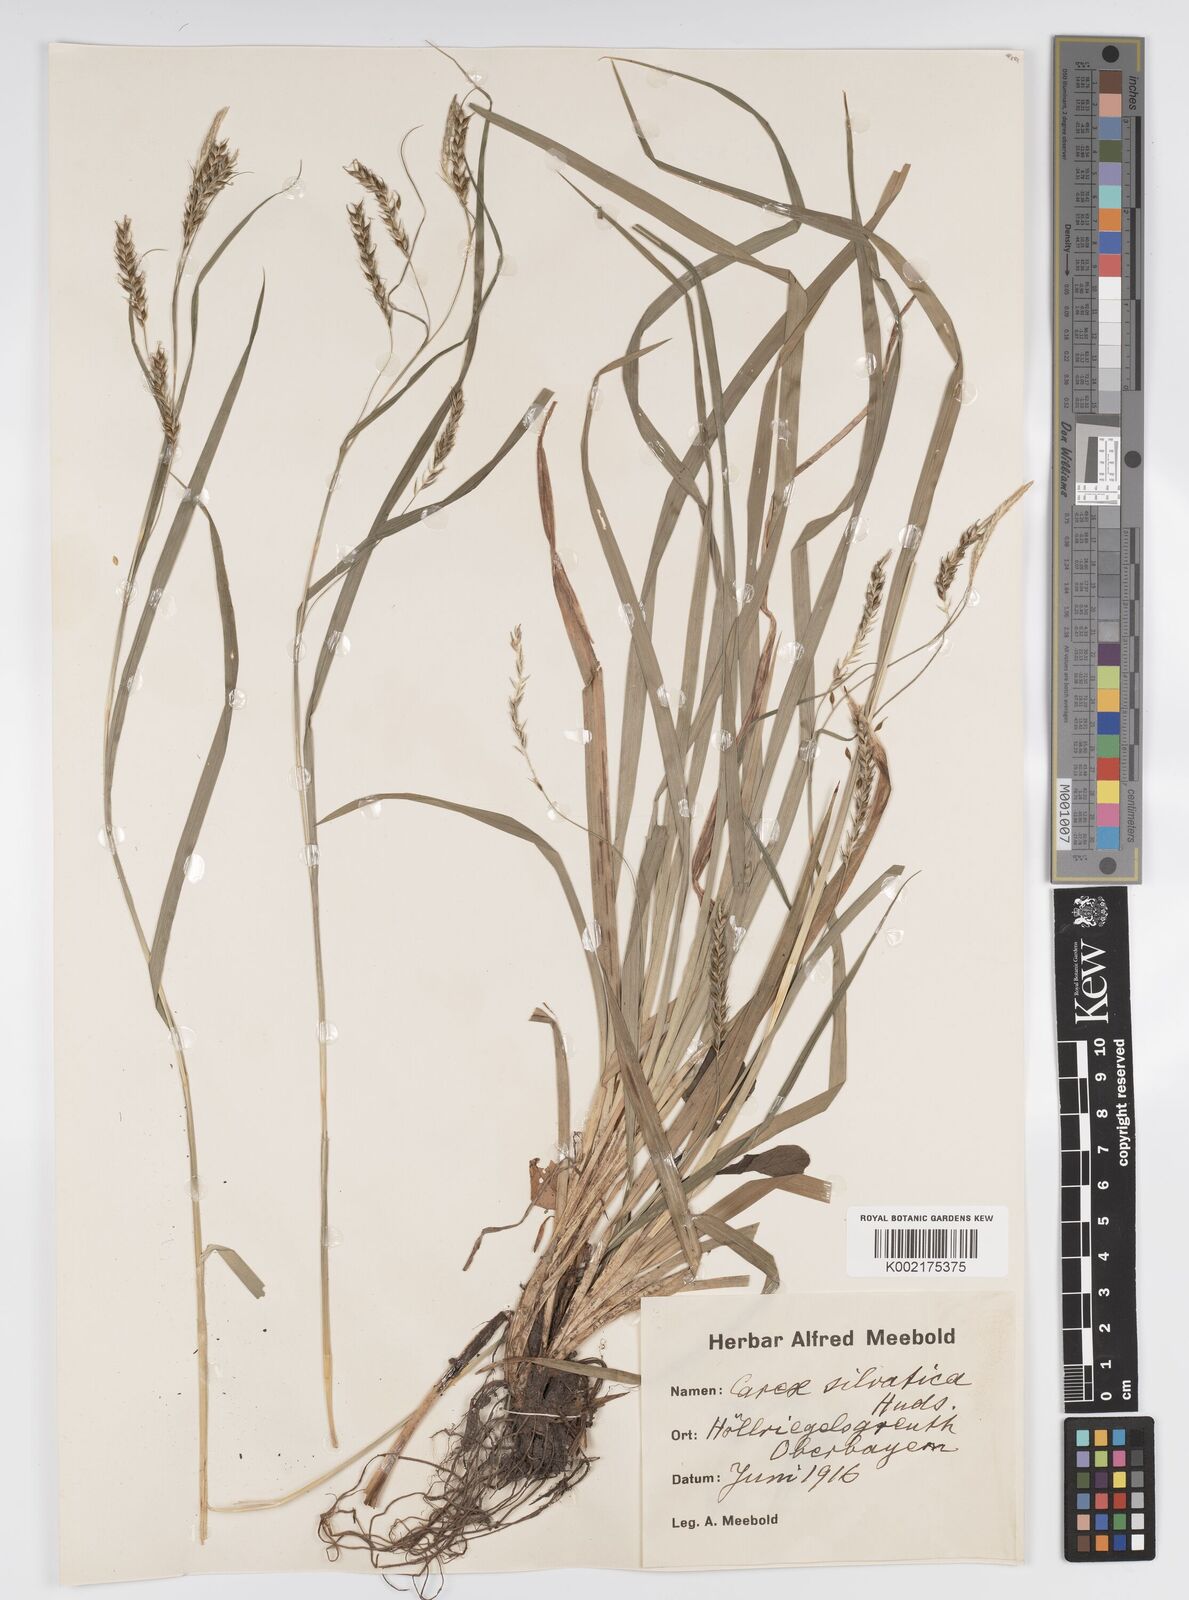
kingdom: Plantae
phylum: Tracheophyta
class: Liliopsida
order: Poales
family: Cyperaceae
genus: Carex
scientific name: Carex sylvatica
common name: Wood-sedge
